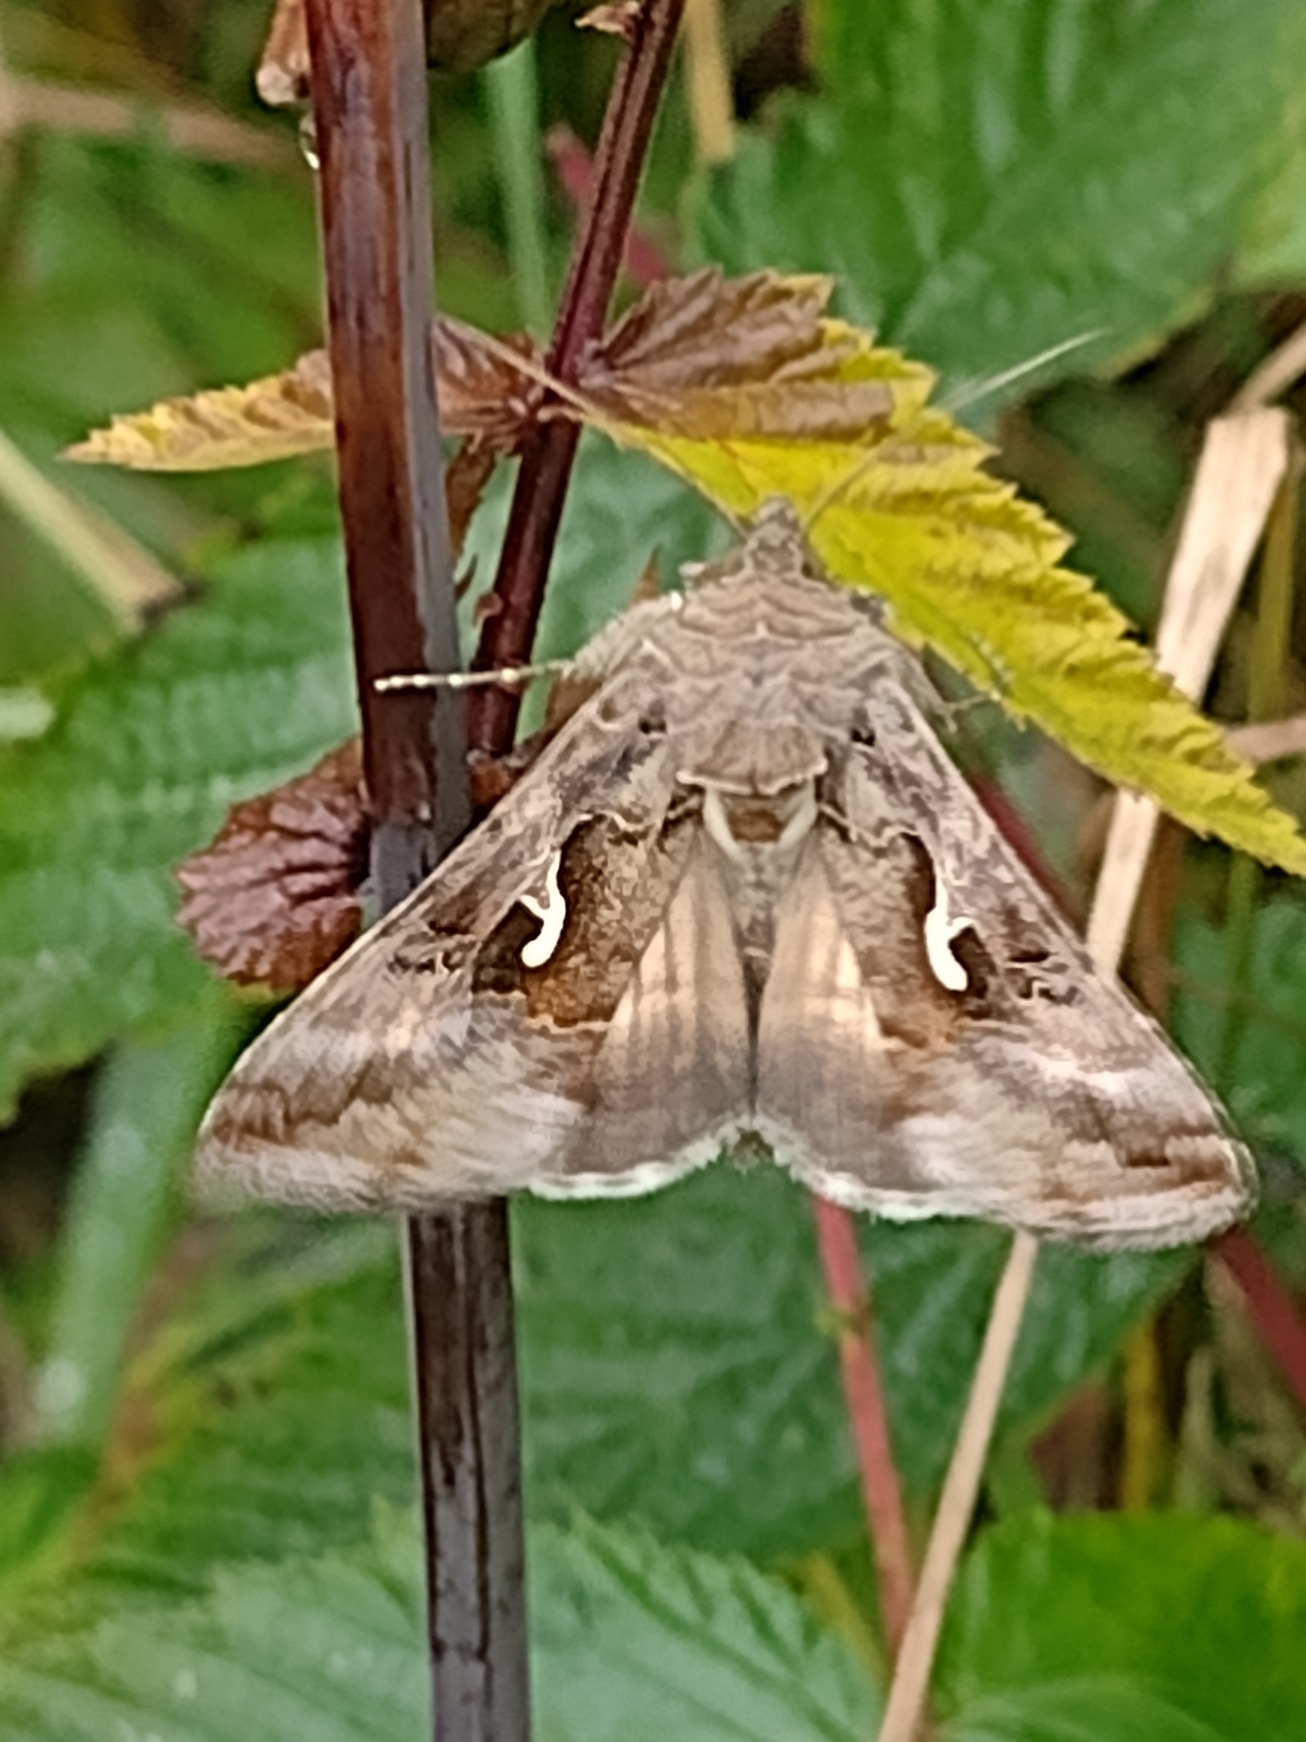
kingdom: Animalia
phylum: Arthropoda
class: Insecta
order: Lepidoptera
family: Noctuidae
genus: Autographa
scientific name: Autographa gamma
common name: Gammaugle
